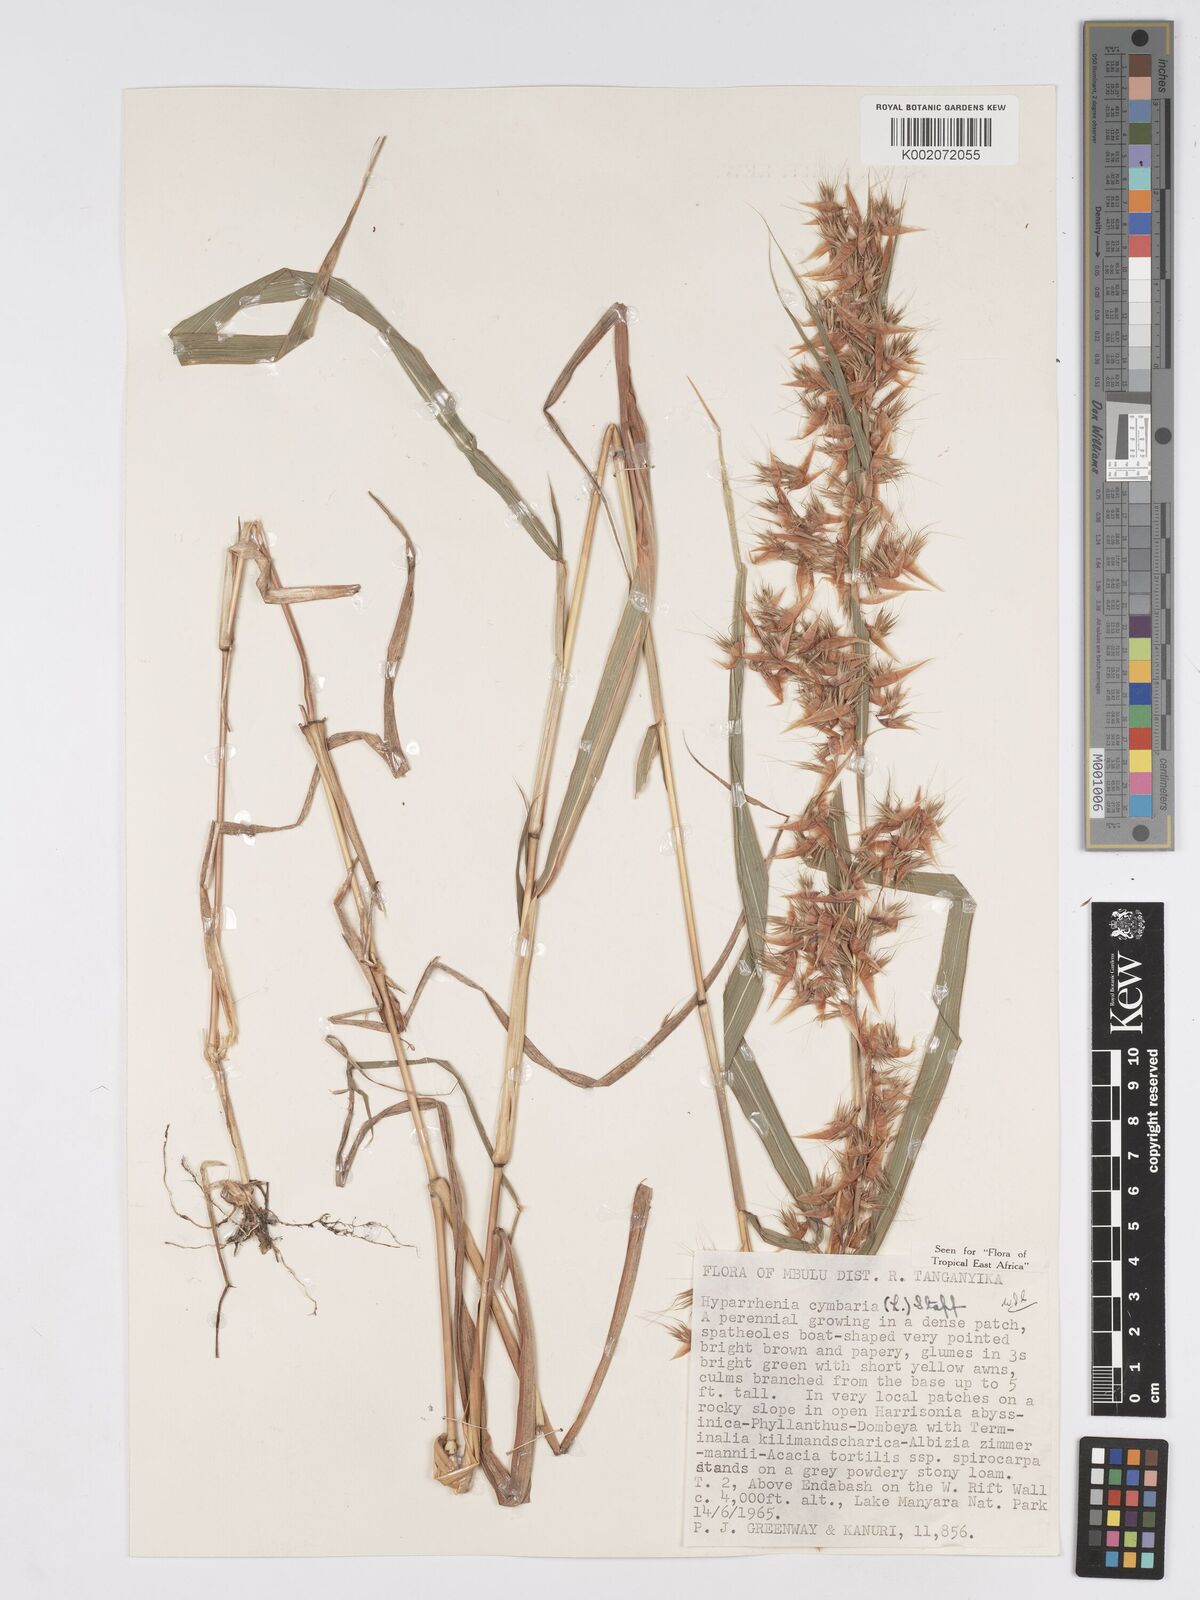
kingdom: Plantae
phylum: Tracheophyta
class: Liliopsida
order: Poales
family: Poaceae
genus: Hyparrhenia
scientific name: Hyparrhenia cymbaria
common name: Boat thatching grass
